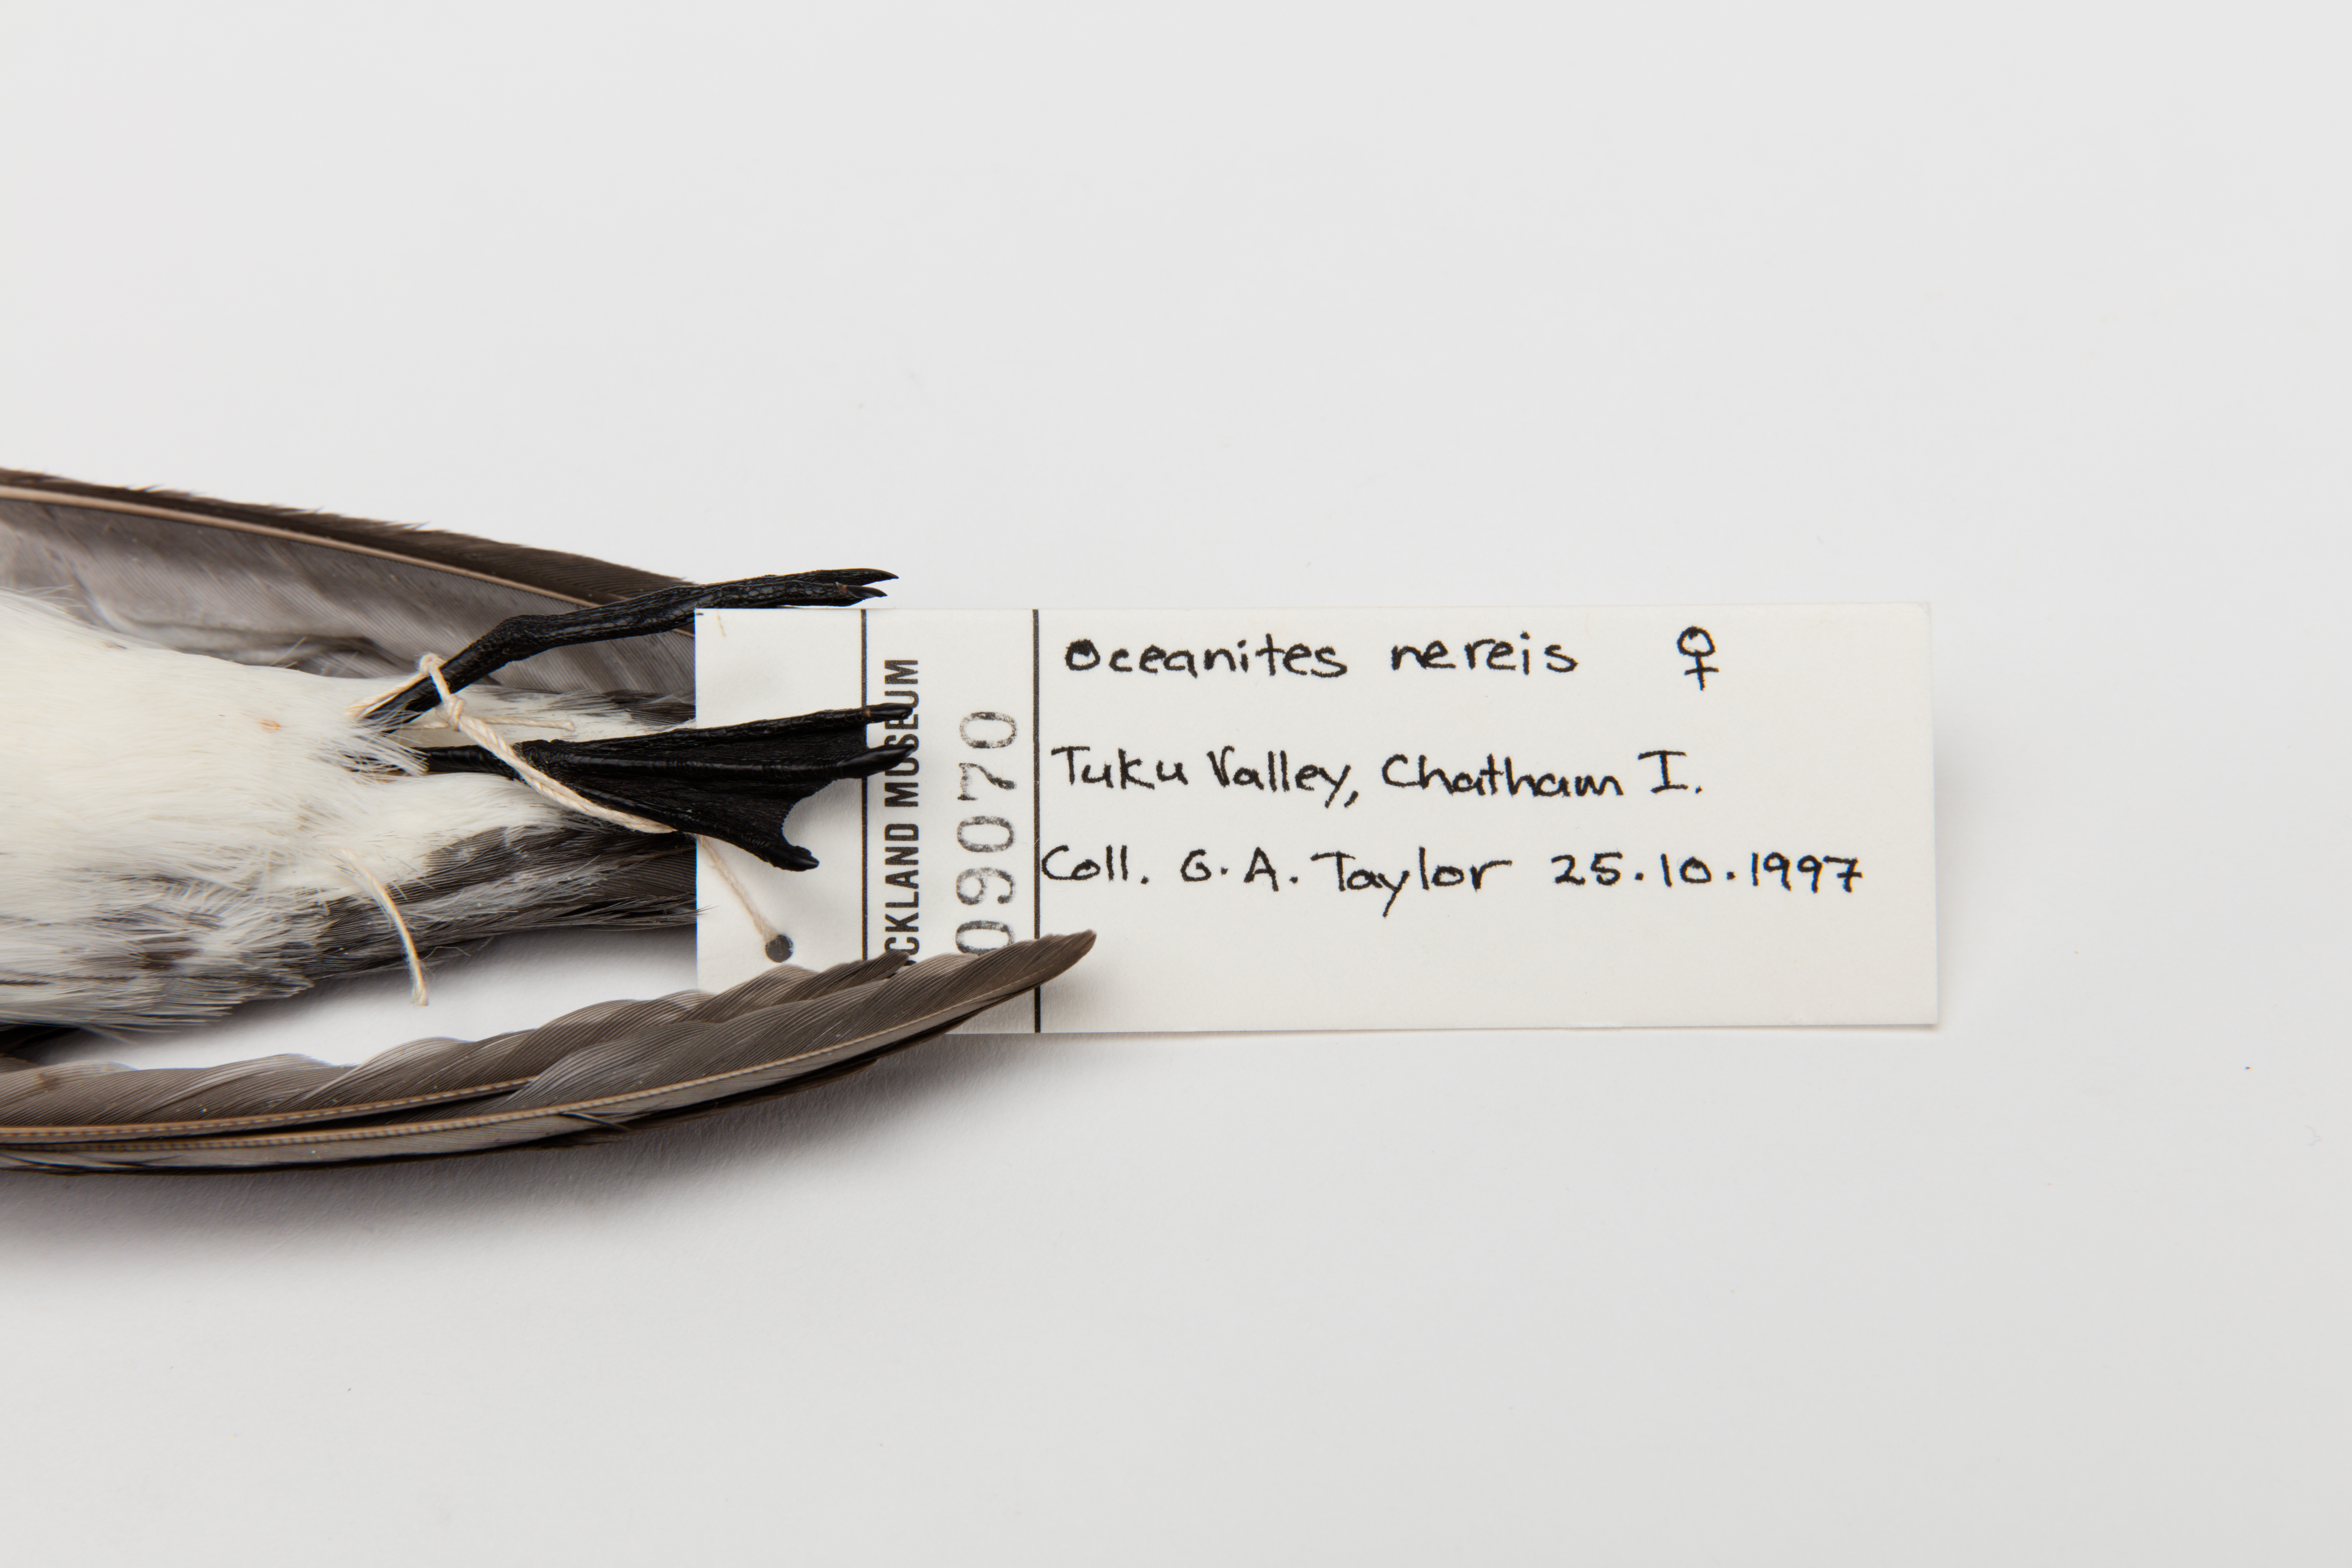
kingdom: Animalia
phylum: Chordata
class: Aves
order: Procellariiformes
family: Hydrobatidae
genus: Garrodia
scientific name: Garrodia nereis
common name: Grey-backed storm petrel
